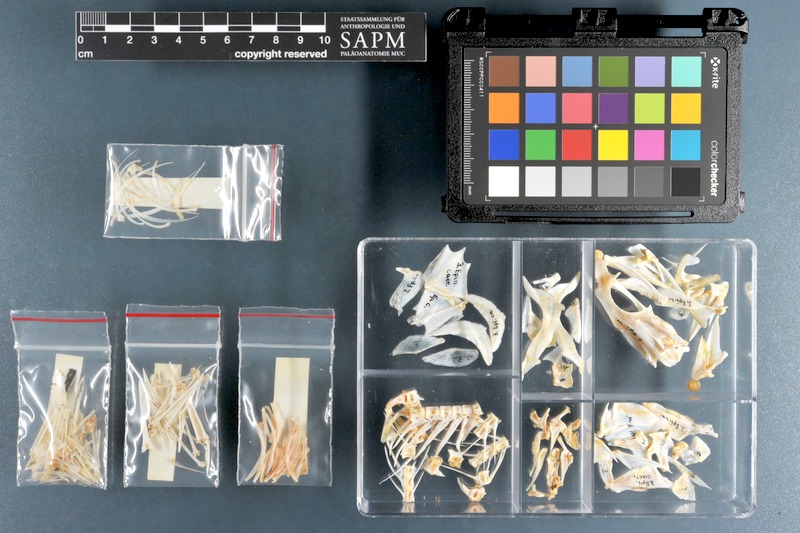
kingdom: Animalia
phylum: Chordata
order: Perciformes
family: Serranidae
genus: Epinephelus
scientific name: Epinephelus coeruleopunctatus
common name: Whitespotted grouper
